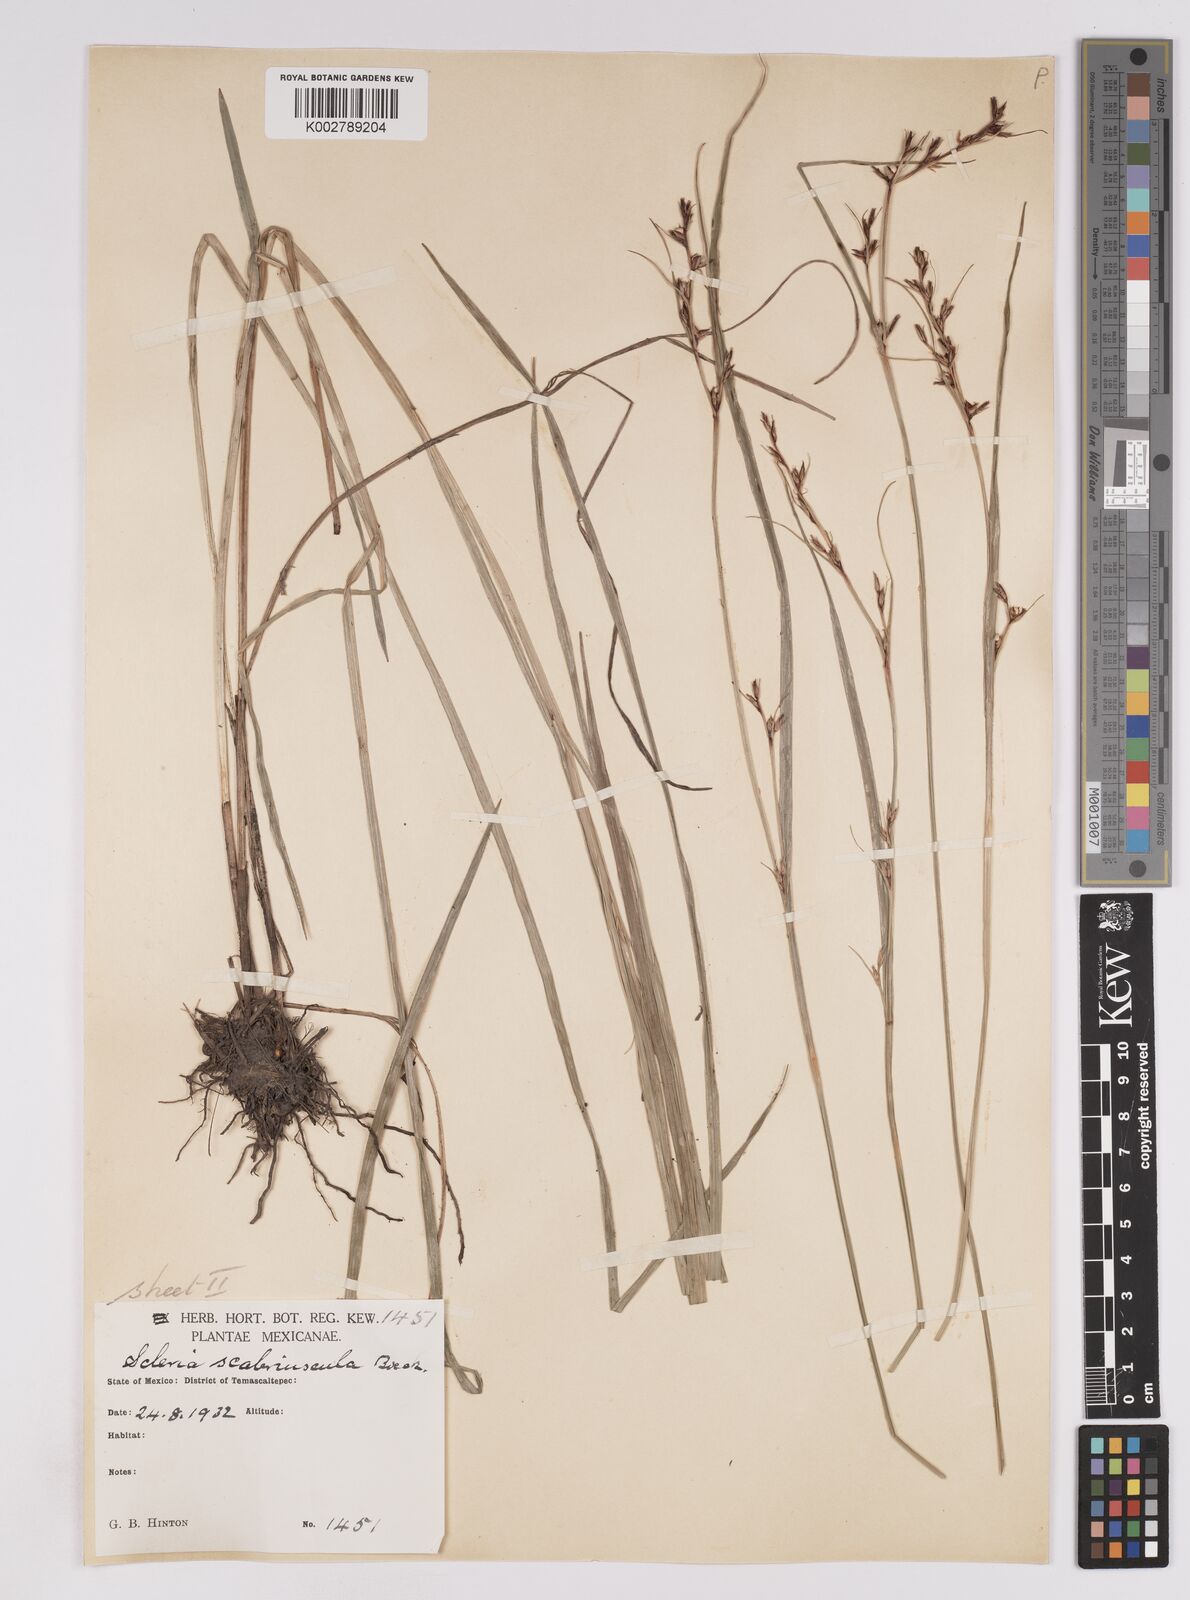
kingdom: Plantae
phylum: Tracheophyta
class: Liliopsida
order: Poales
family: Cyperaceae
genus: Scleria
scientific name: Scleria scabriuscula
